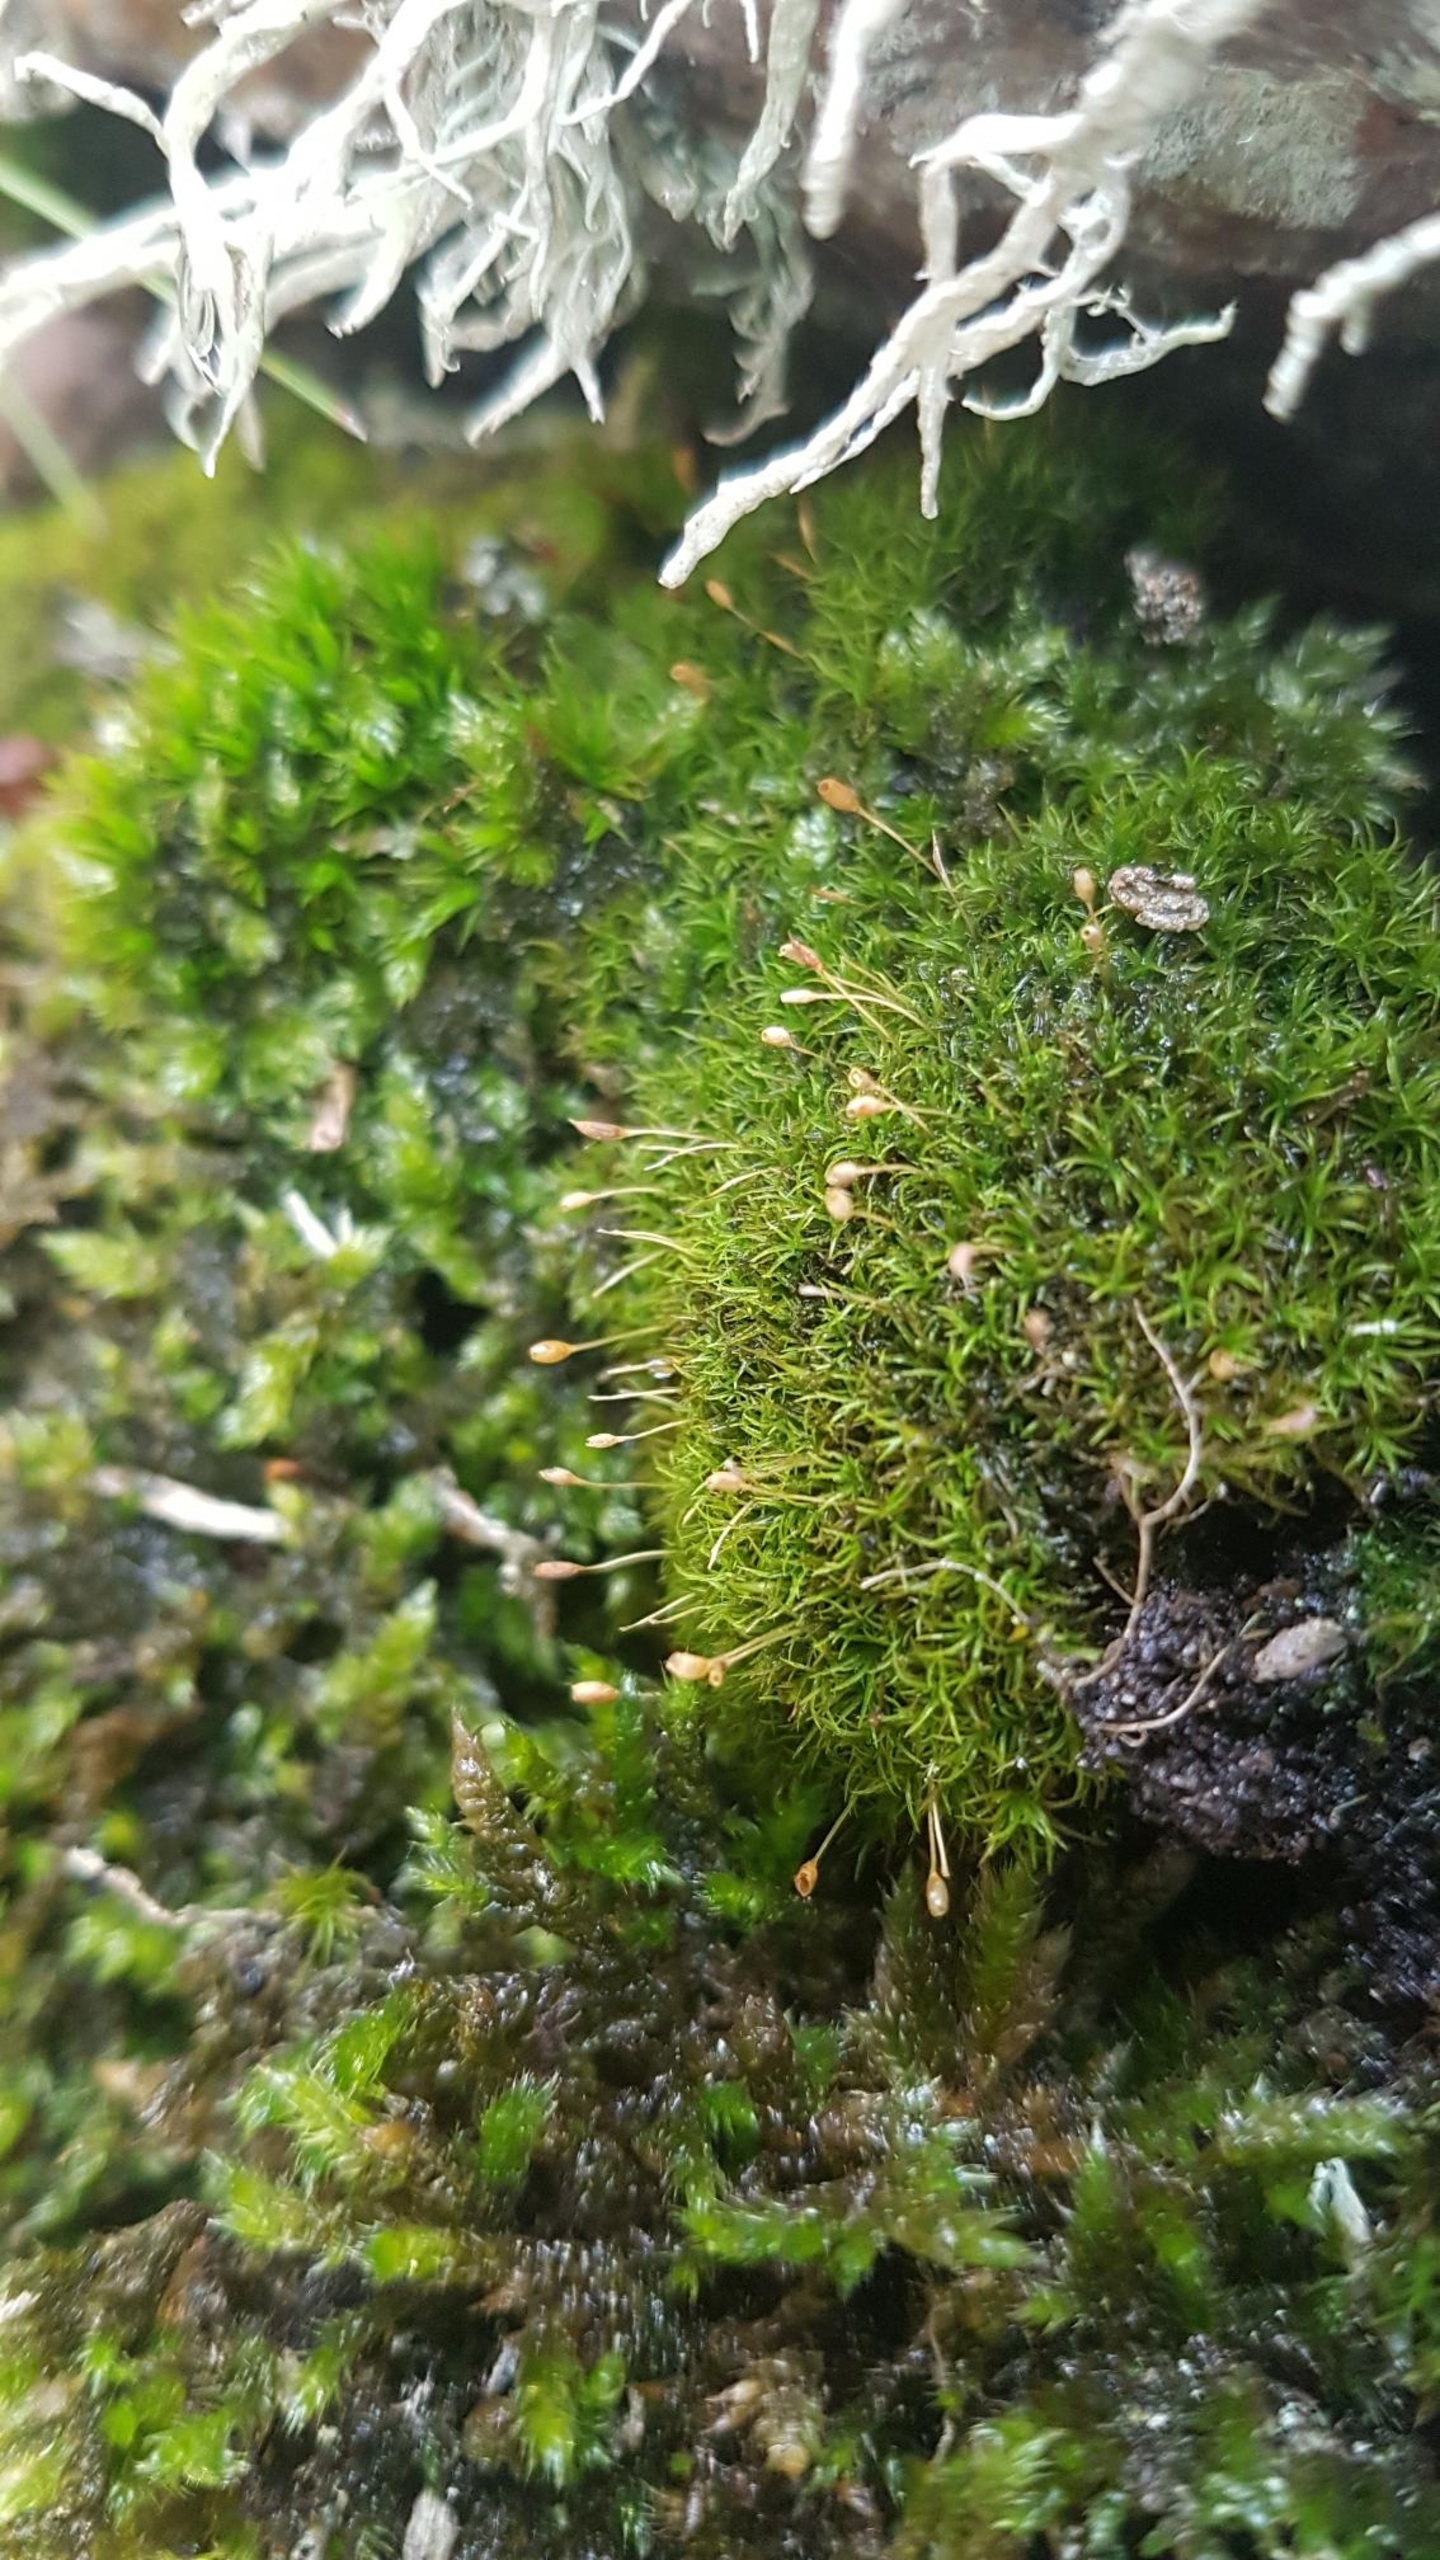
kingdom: Plantae
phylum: Bryophyta
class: Bryopsida
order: Dicranales
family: Rhabdoweisiaceae
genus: Cynodontium
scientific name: Cynodontium bruntonii
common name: Klippe-smudsmos
